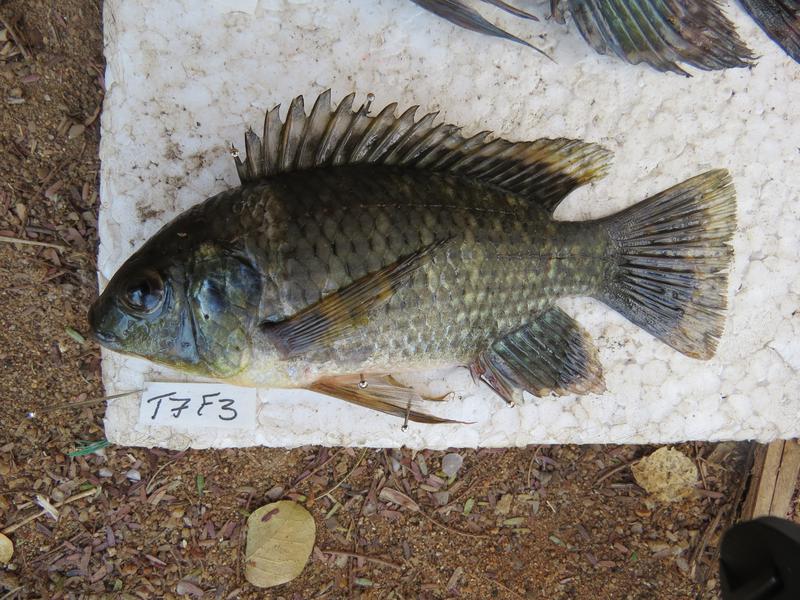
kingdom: Animalia
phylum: Chordata
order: Perciformes
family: Cichlidae
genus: Oreochromis
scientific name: Oreochromis leucostictus
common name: Blue spotted tilapia
